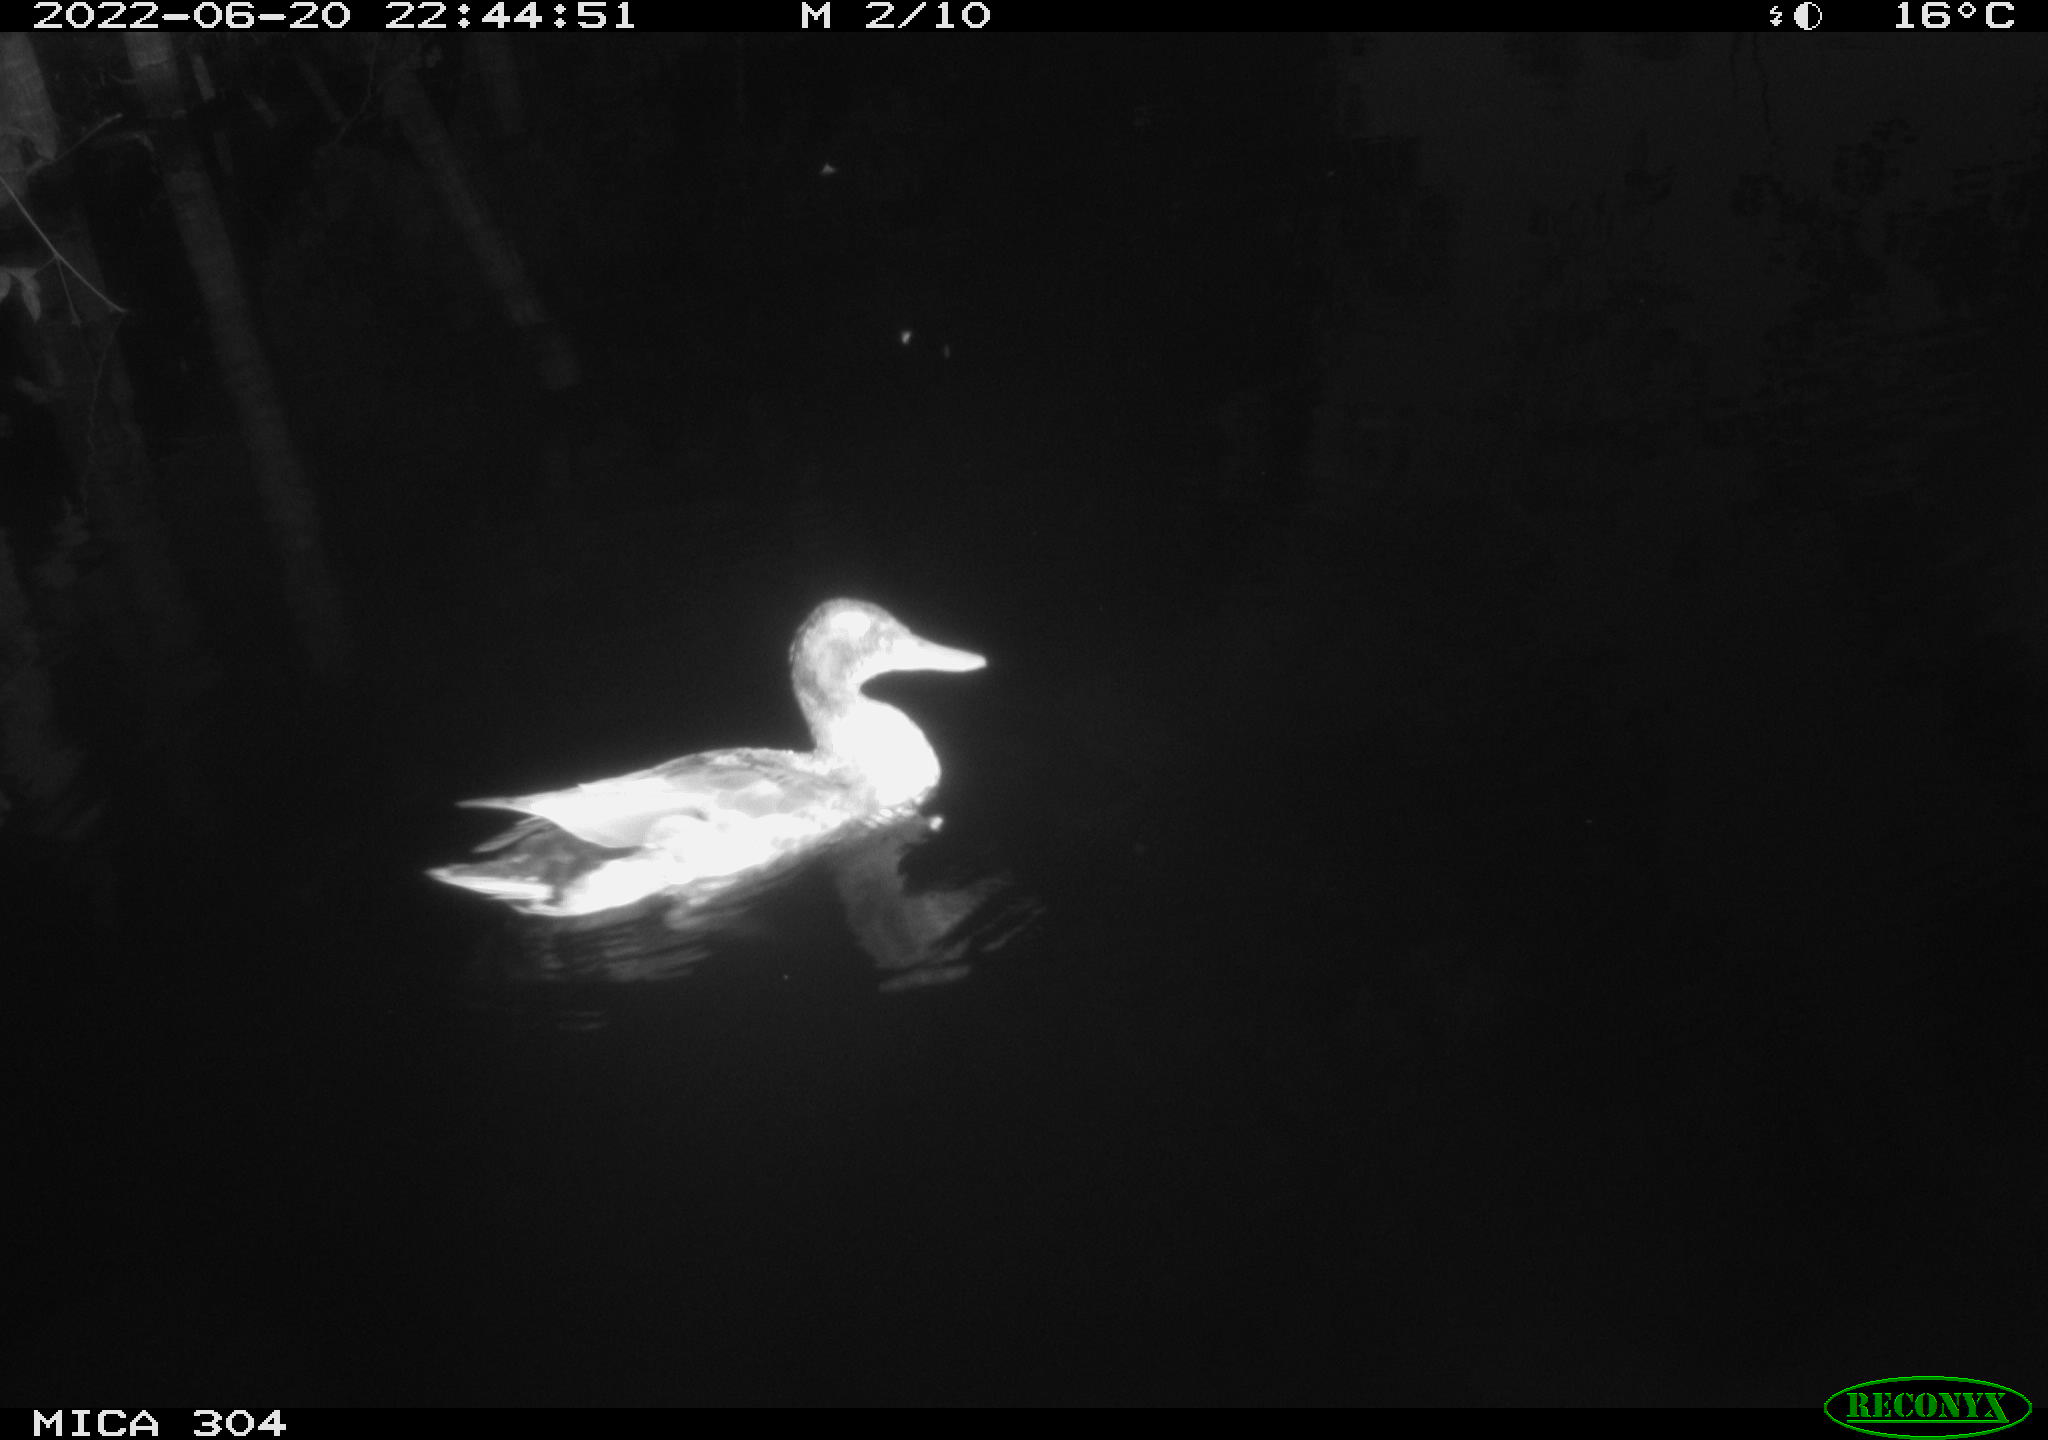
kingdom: Animalia
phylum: Chordata
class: Aves
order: Anseriformes
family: Anatidae
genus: Anas
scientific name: Anas platyrhynchos
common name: Mallard
